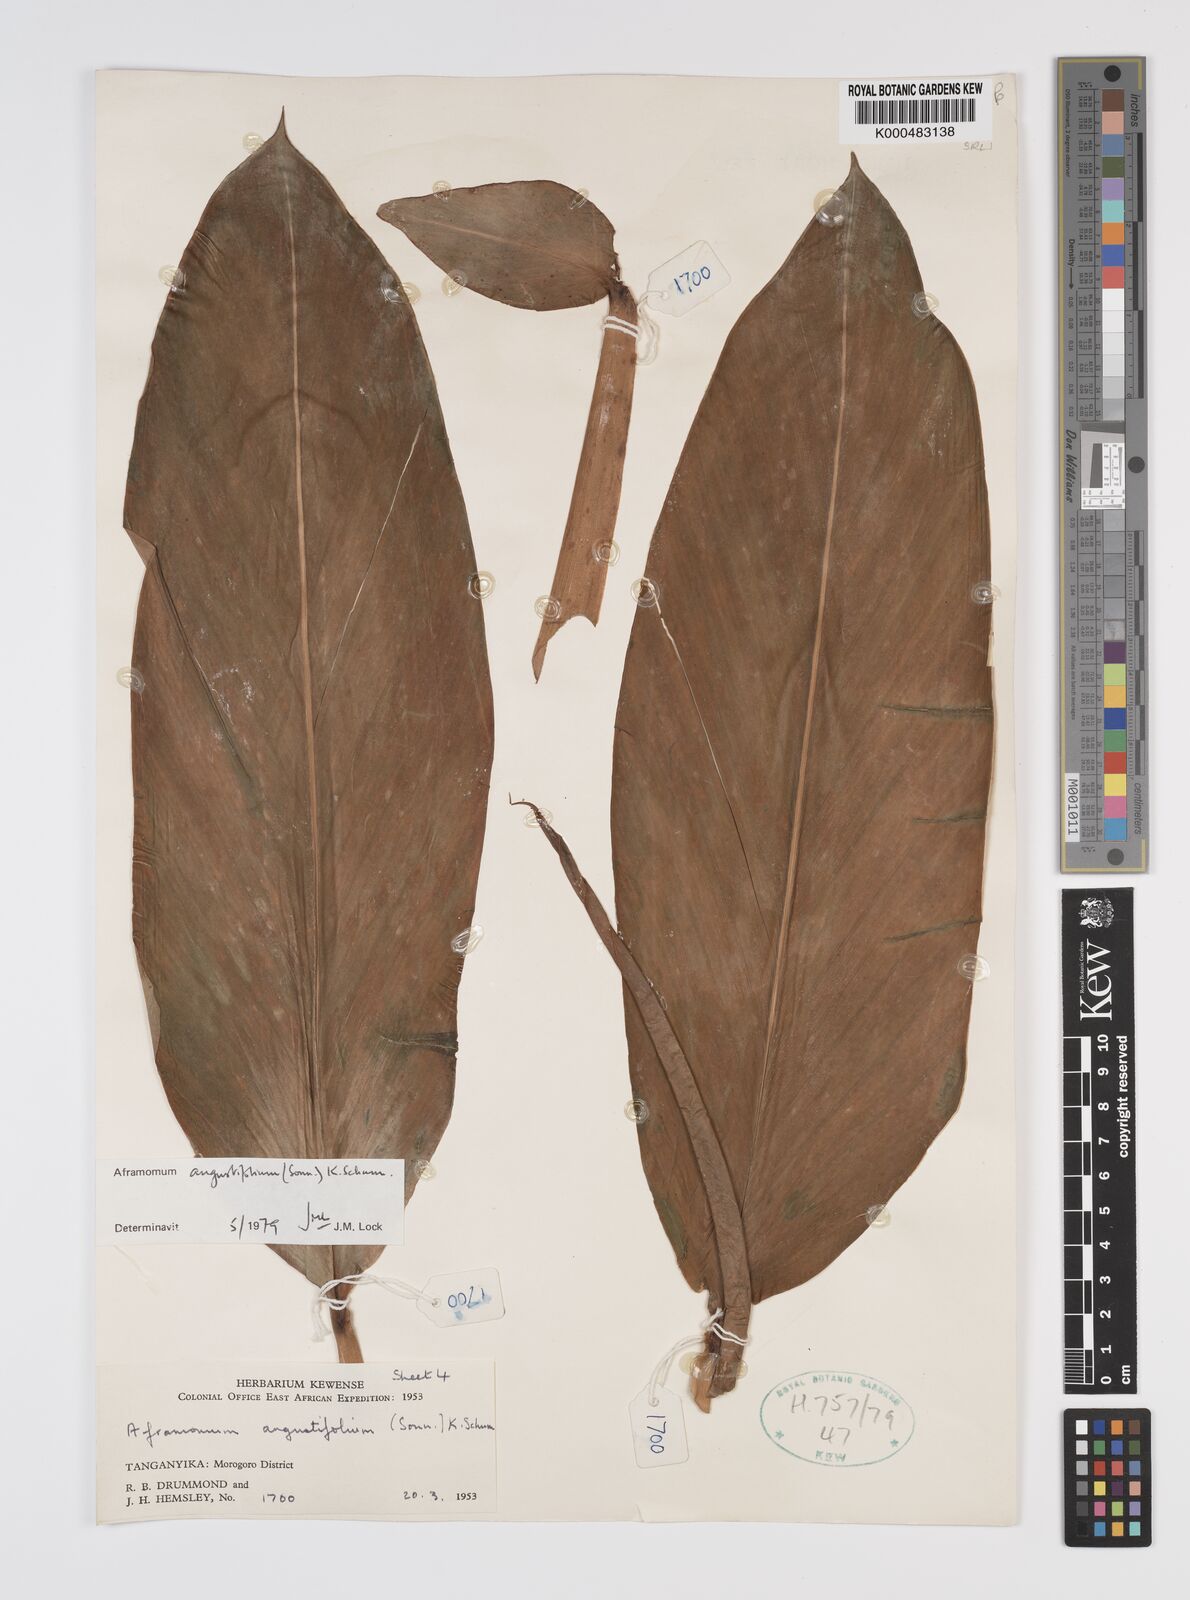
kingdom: Plantae
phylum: Tracheophyta
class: Liliopsida
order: Zingiberales
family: Zingiberaceae
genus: Aframomum
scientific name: Aframomum angustifolium
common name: Guinea grains
